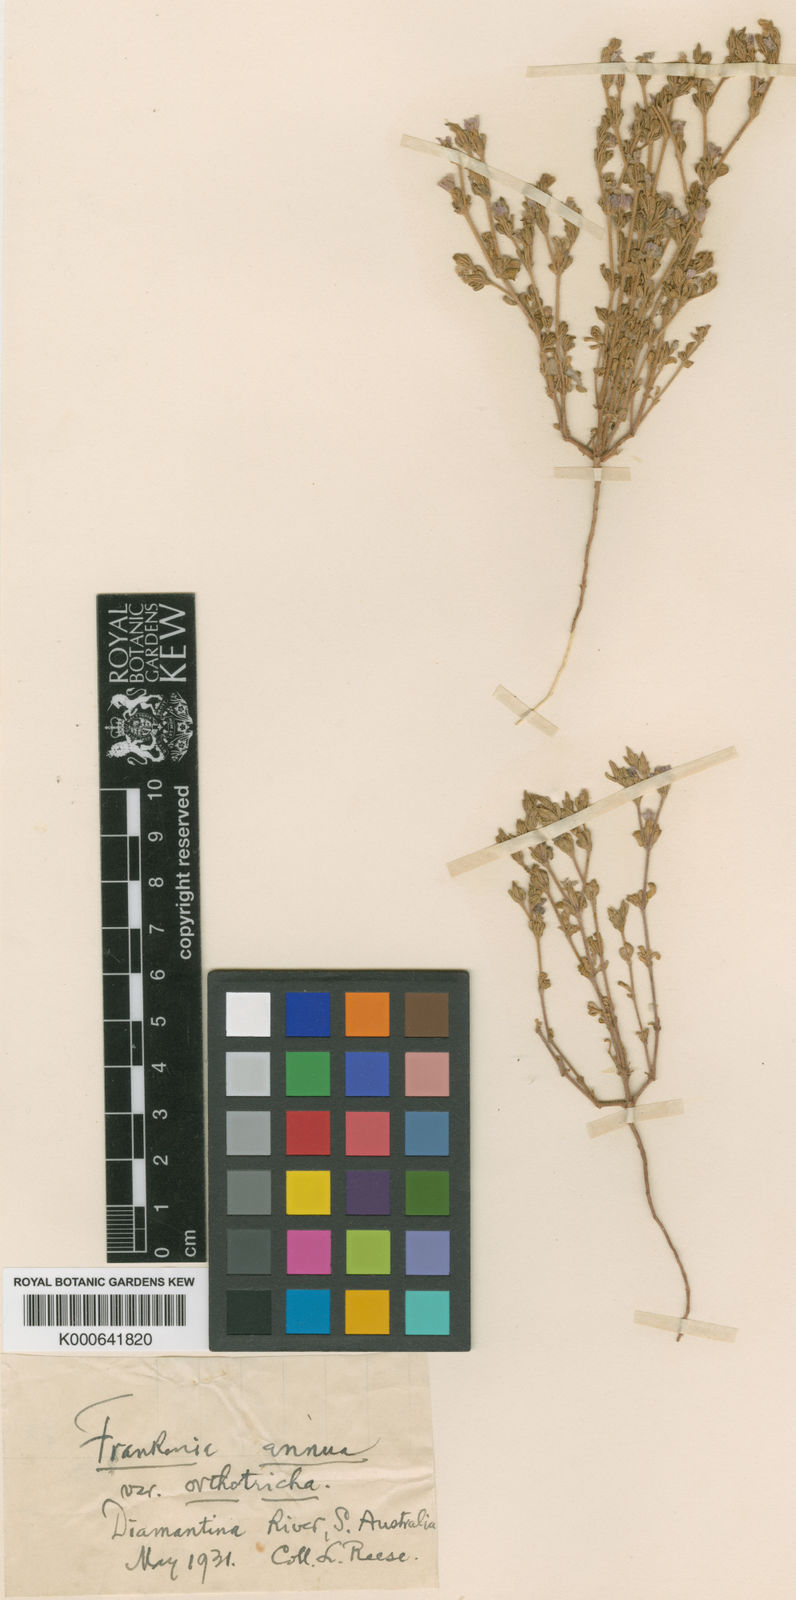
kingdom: Plantae
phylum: Tracheophyta
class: Magnoliopsida
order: Caryophyllales
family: Frankeniaceae
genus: Frankenia
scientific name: Frankenia orthotricha
